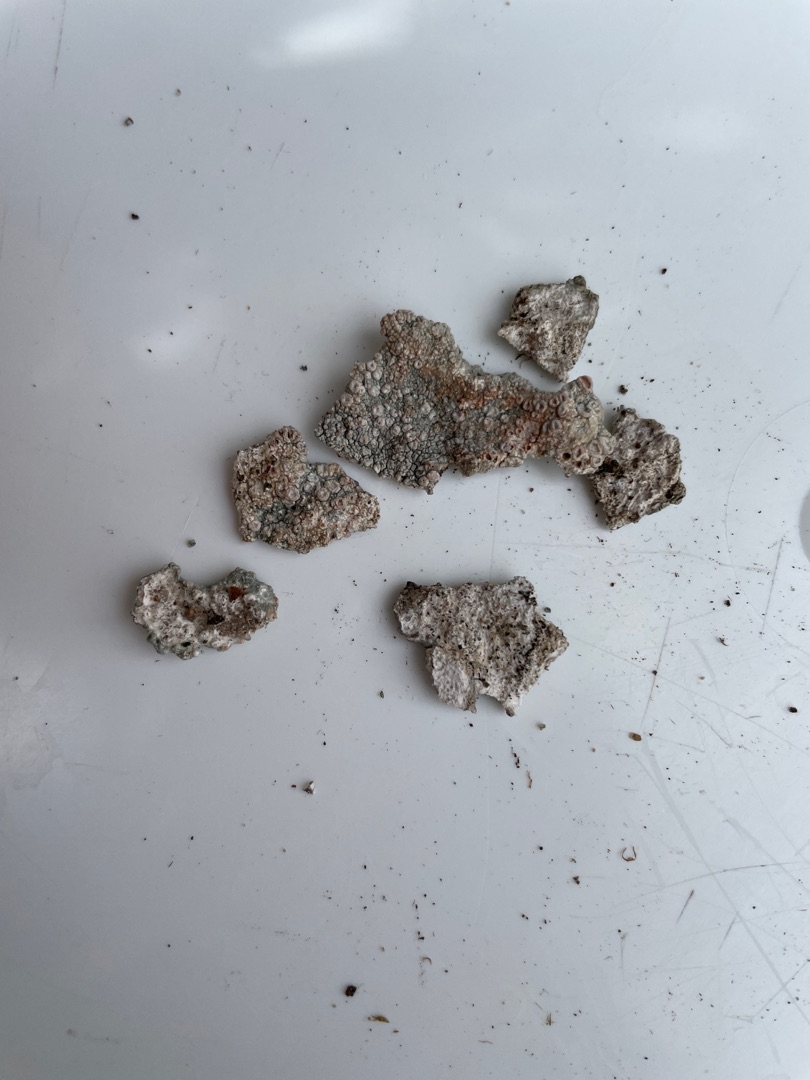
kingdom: Fungi
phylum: Ascomycota
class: Lecanoromycetes
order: Pertusariales
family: Ochrolechiaceae
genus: Ochrolechia
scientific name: Ochrolechia parella
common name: Almindelig blegskivelav
